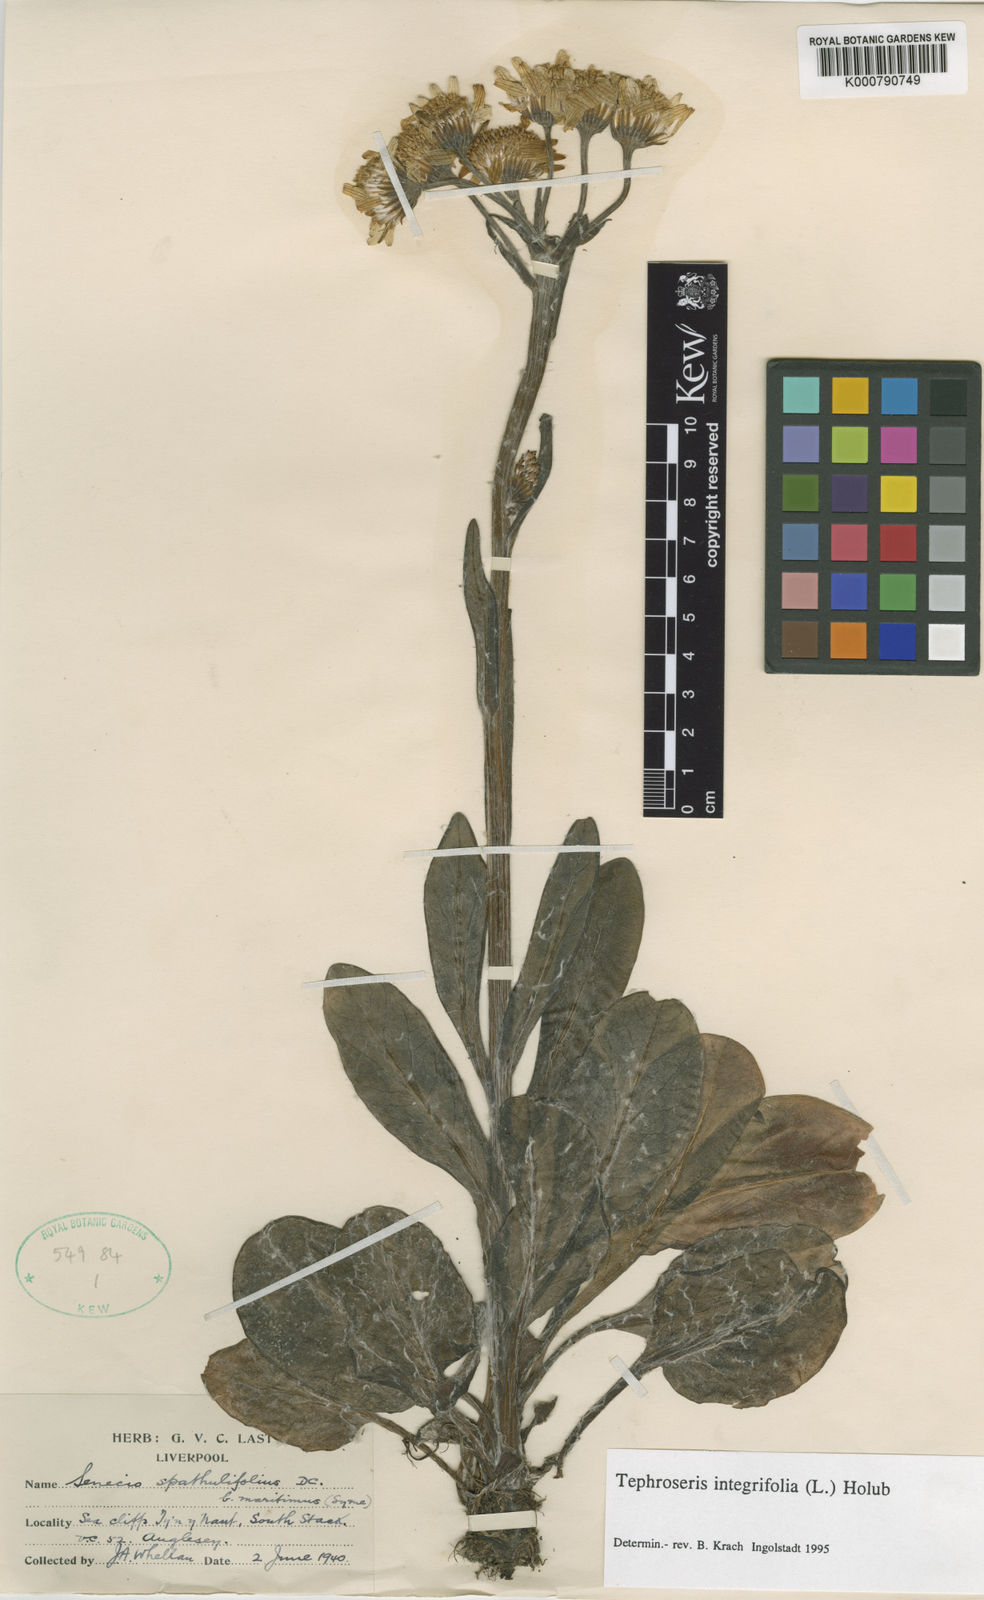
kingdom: Plantae
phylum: Tracheophyta
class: Magnoliopsida
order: Asterales
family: Asteraceae
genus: Tephroseris
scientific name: Tephroseris integrifolia
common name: Field fleawort
